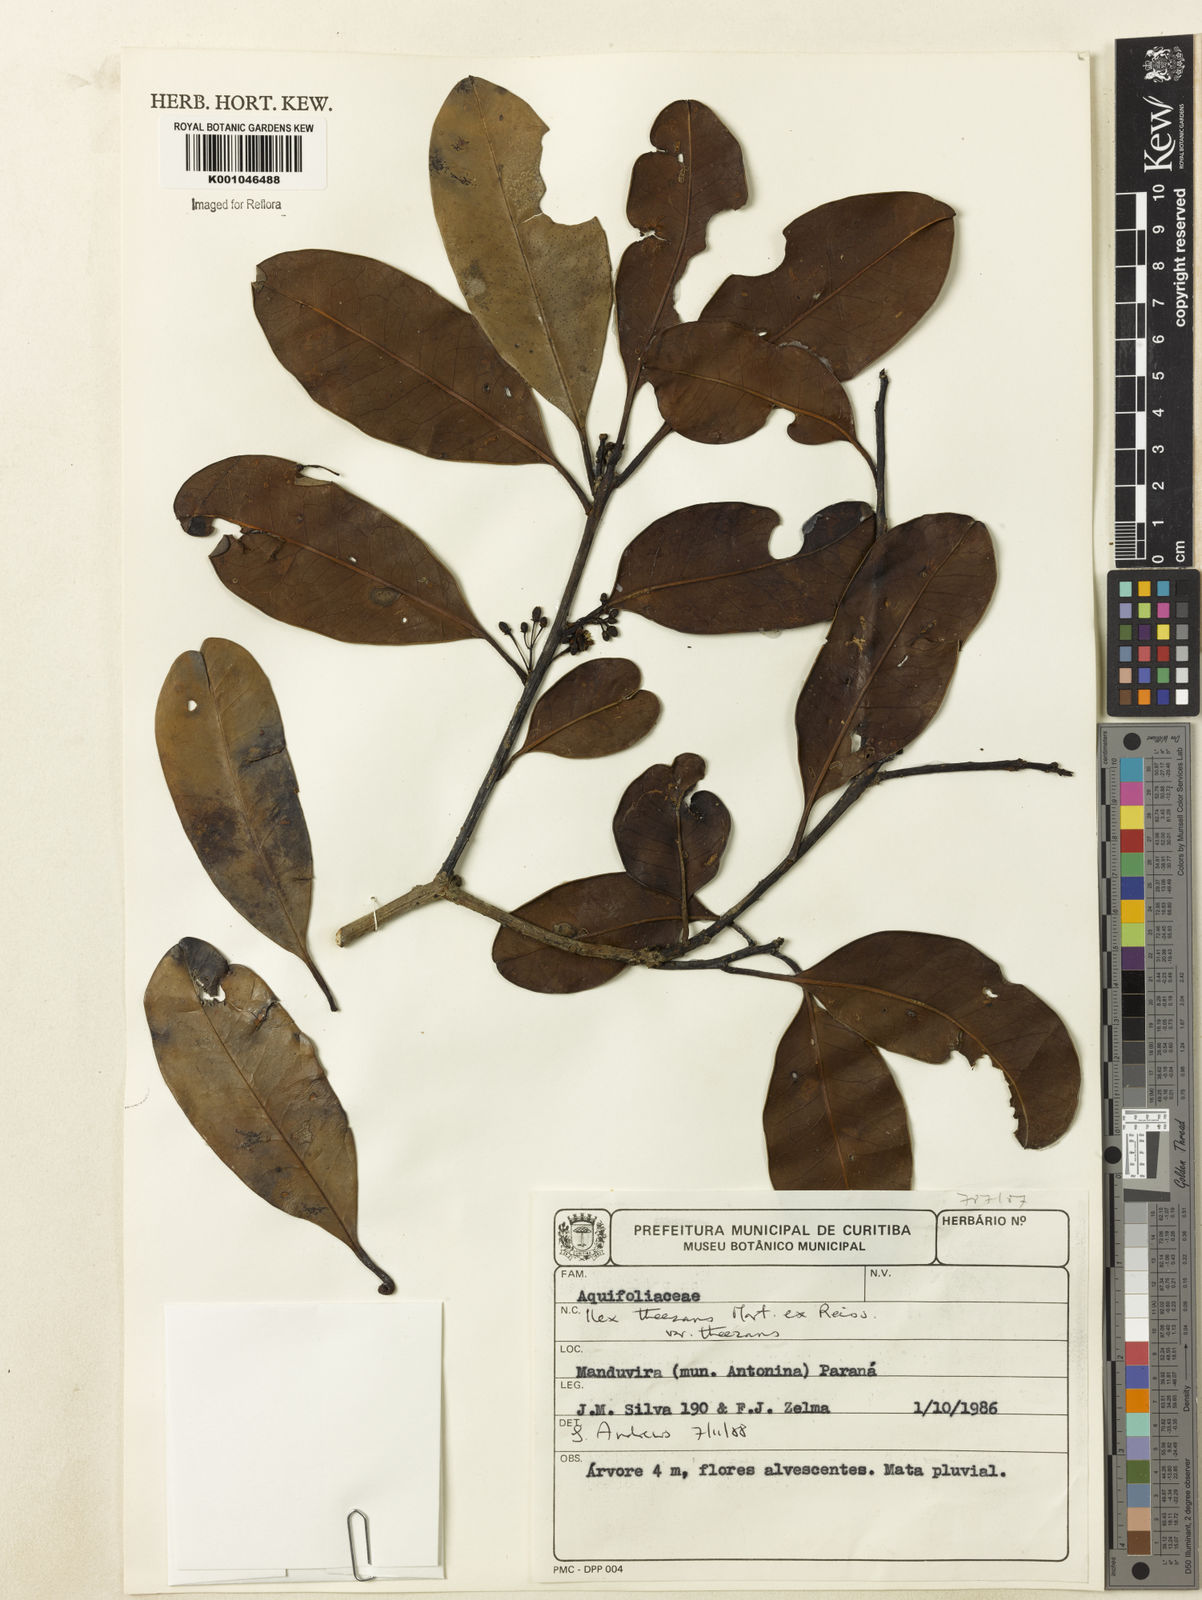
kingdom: Plantae
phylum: Tracheophyta
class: Magnoliopsida
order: Aquifoliales
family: Aquifoliaceae
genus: Ilex
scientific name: Ilex paraguariensis
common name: Paraguay tea
